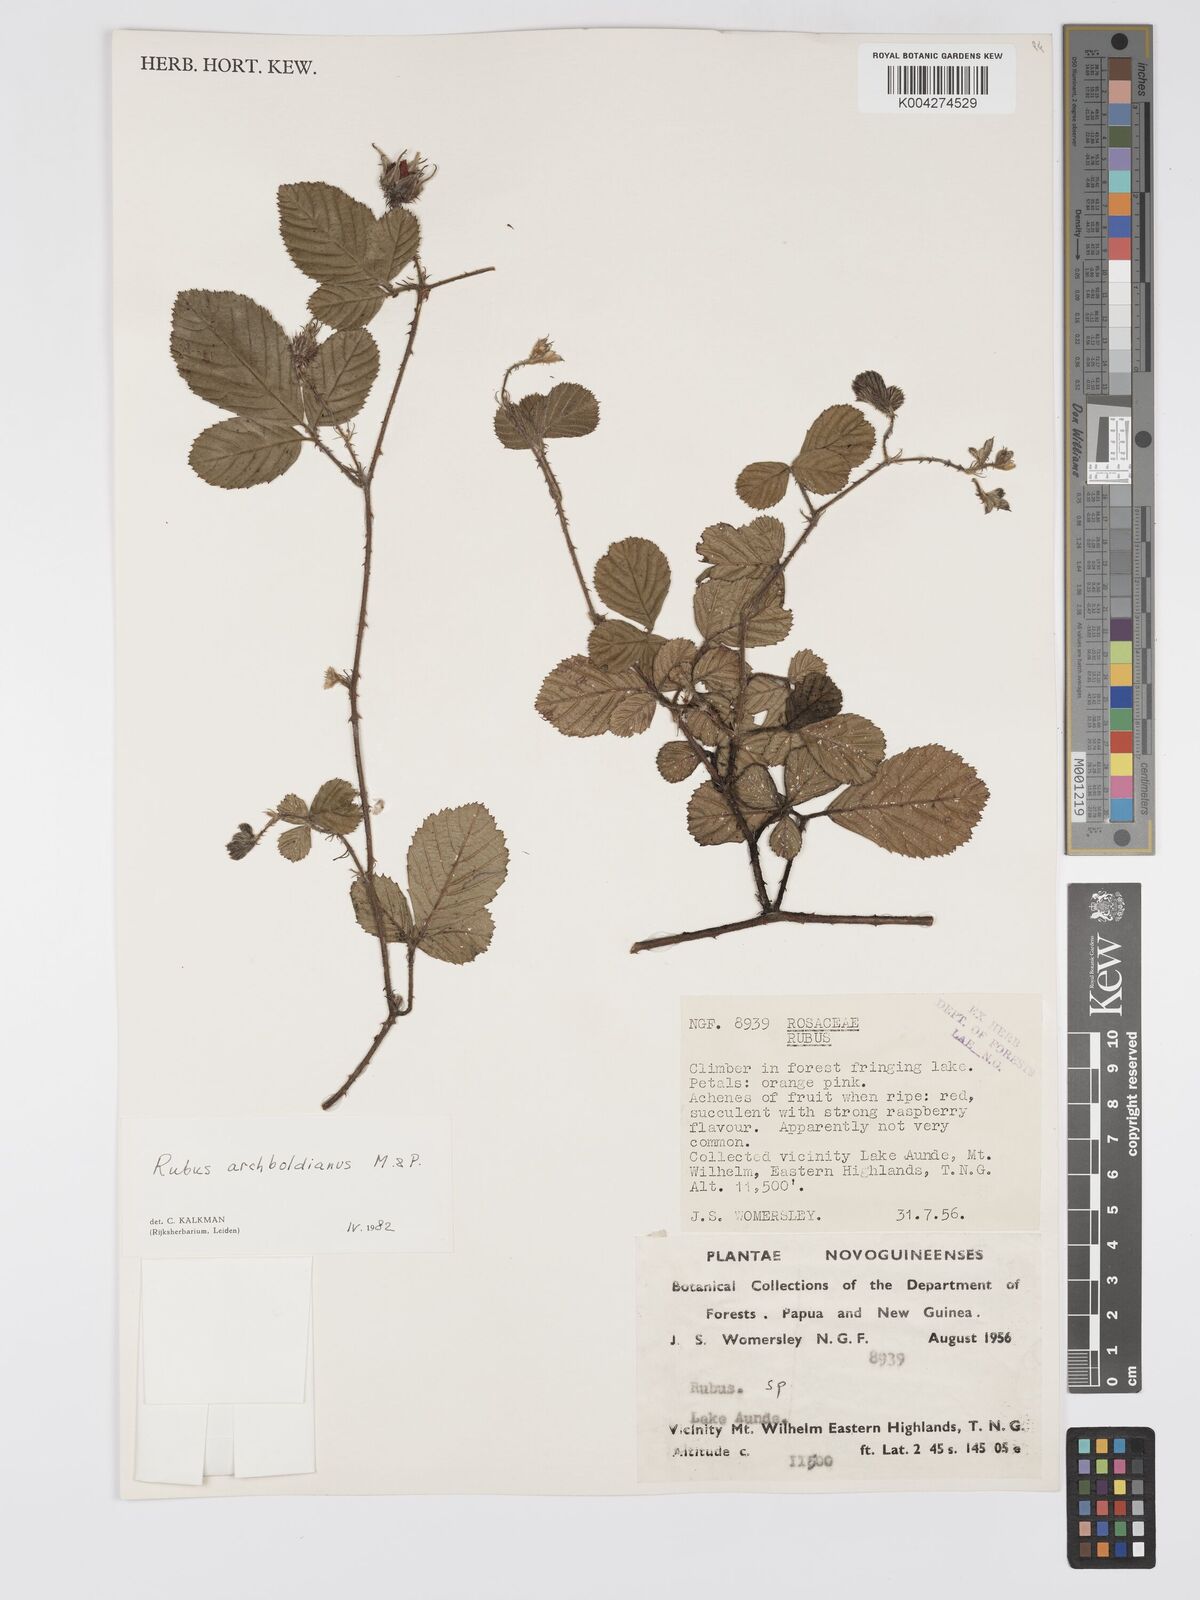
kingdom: Plantae
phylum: Tracheophyta
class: Magnoliopsida
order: Rosales
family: Rosaceae
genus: Rubus
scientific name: Rubus archboldianus
